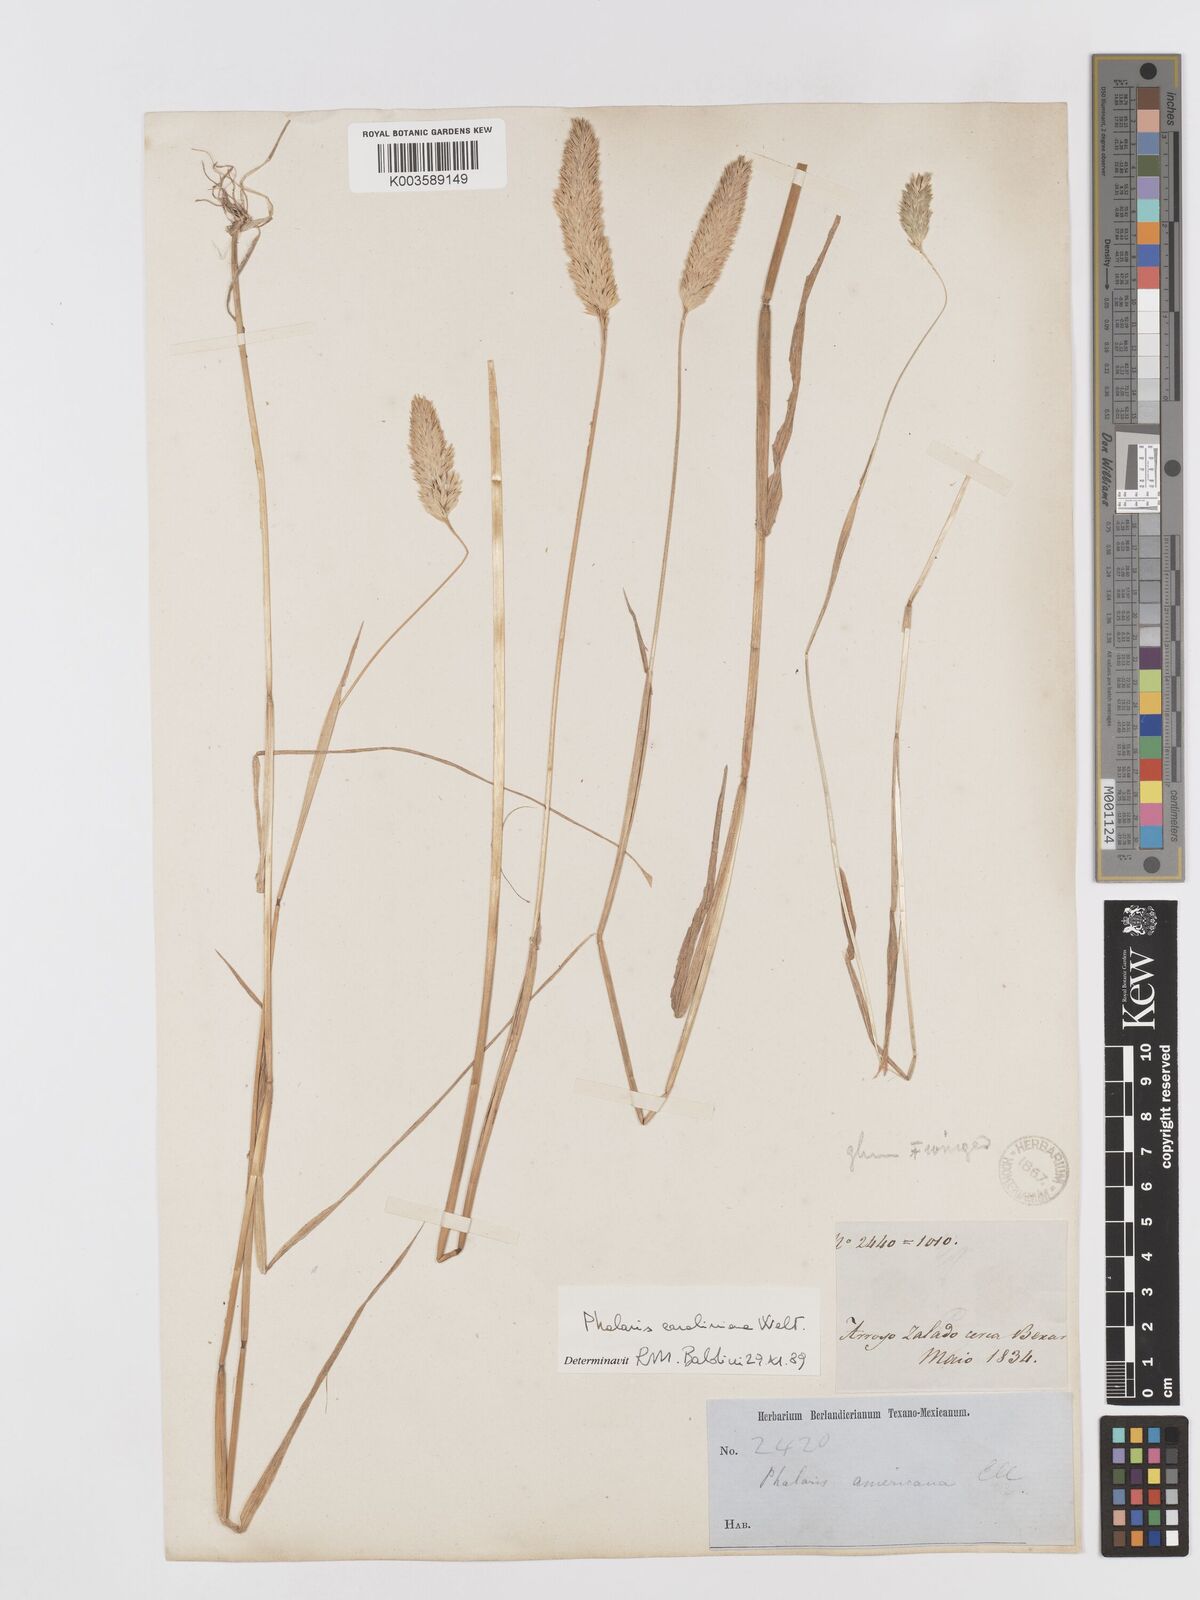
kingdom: Plantae
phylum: Tracheophyta
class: Liliopsida
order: Poales
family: Poaceae
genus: Phalaris
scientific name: Phalaris caroliniana
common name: May grass
